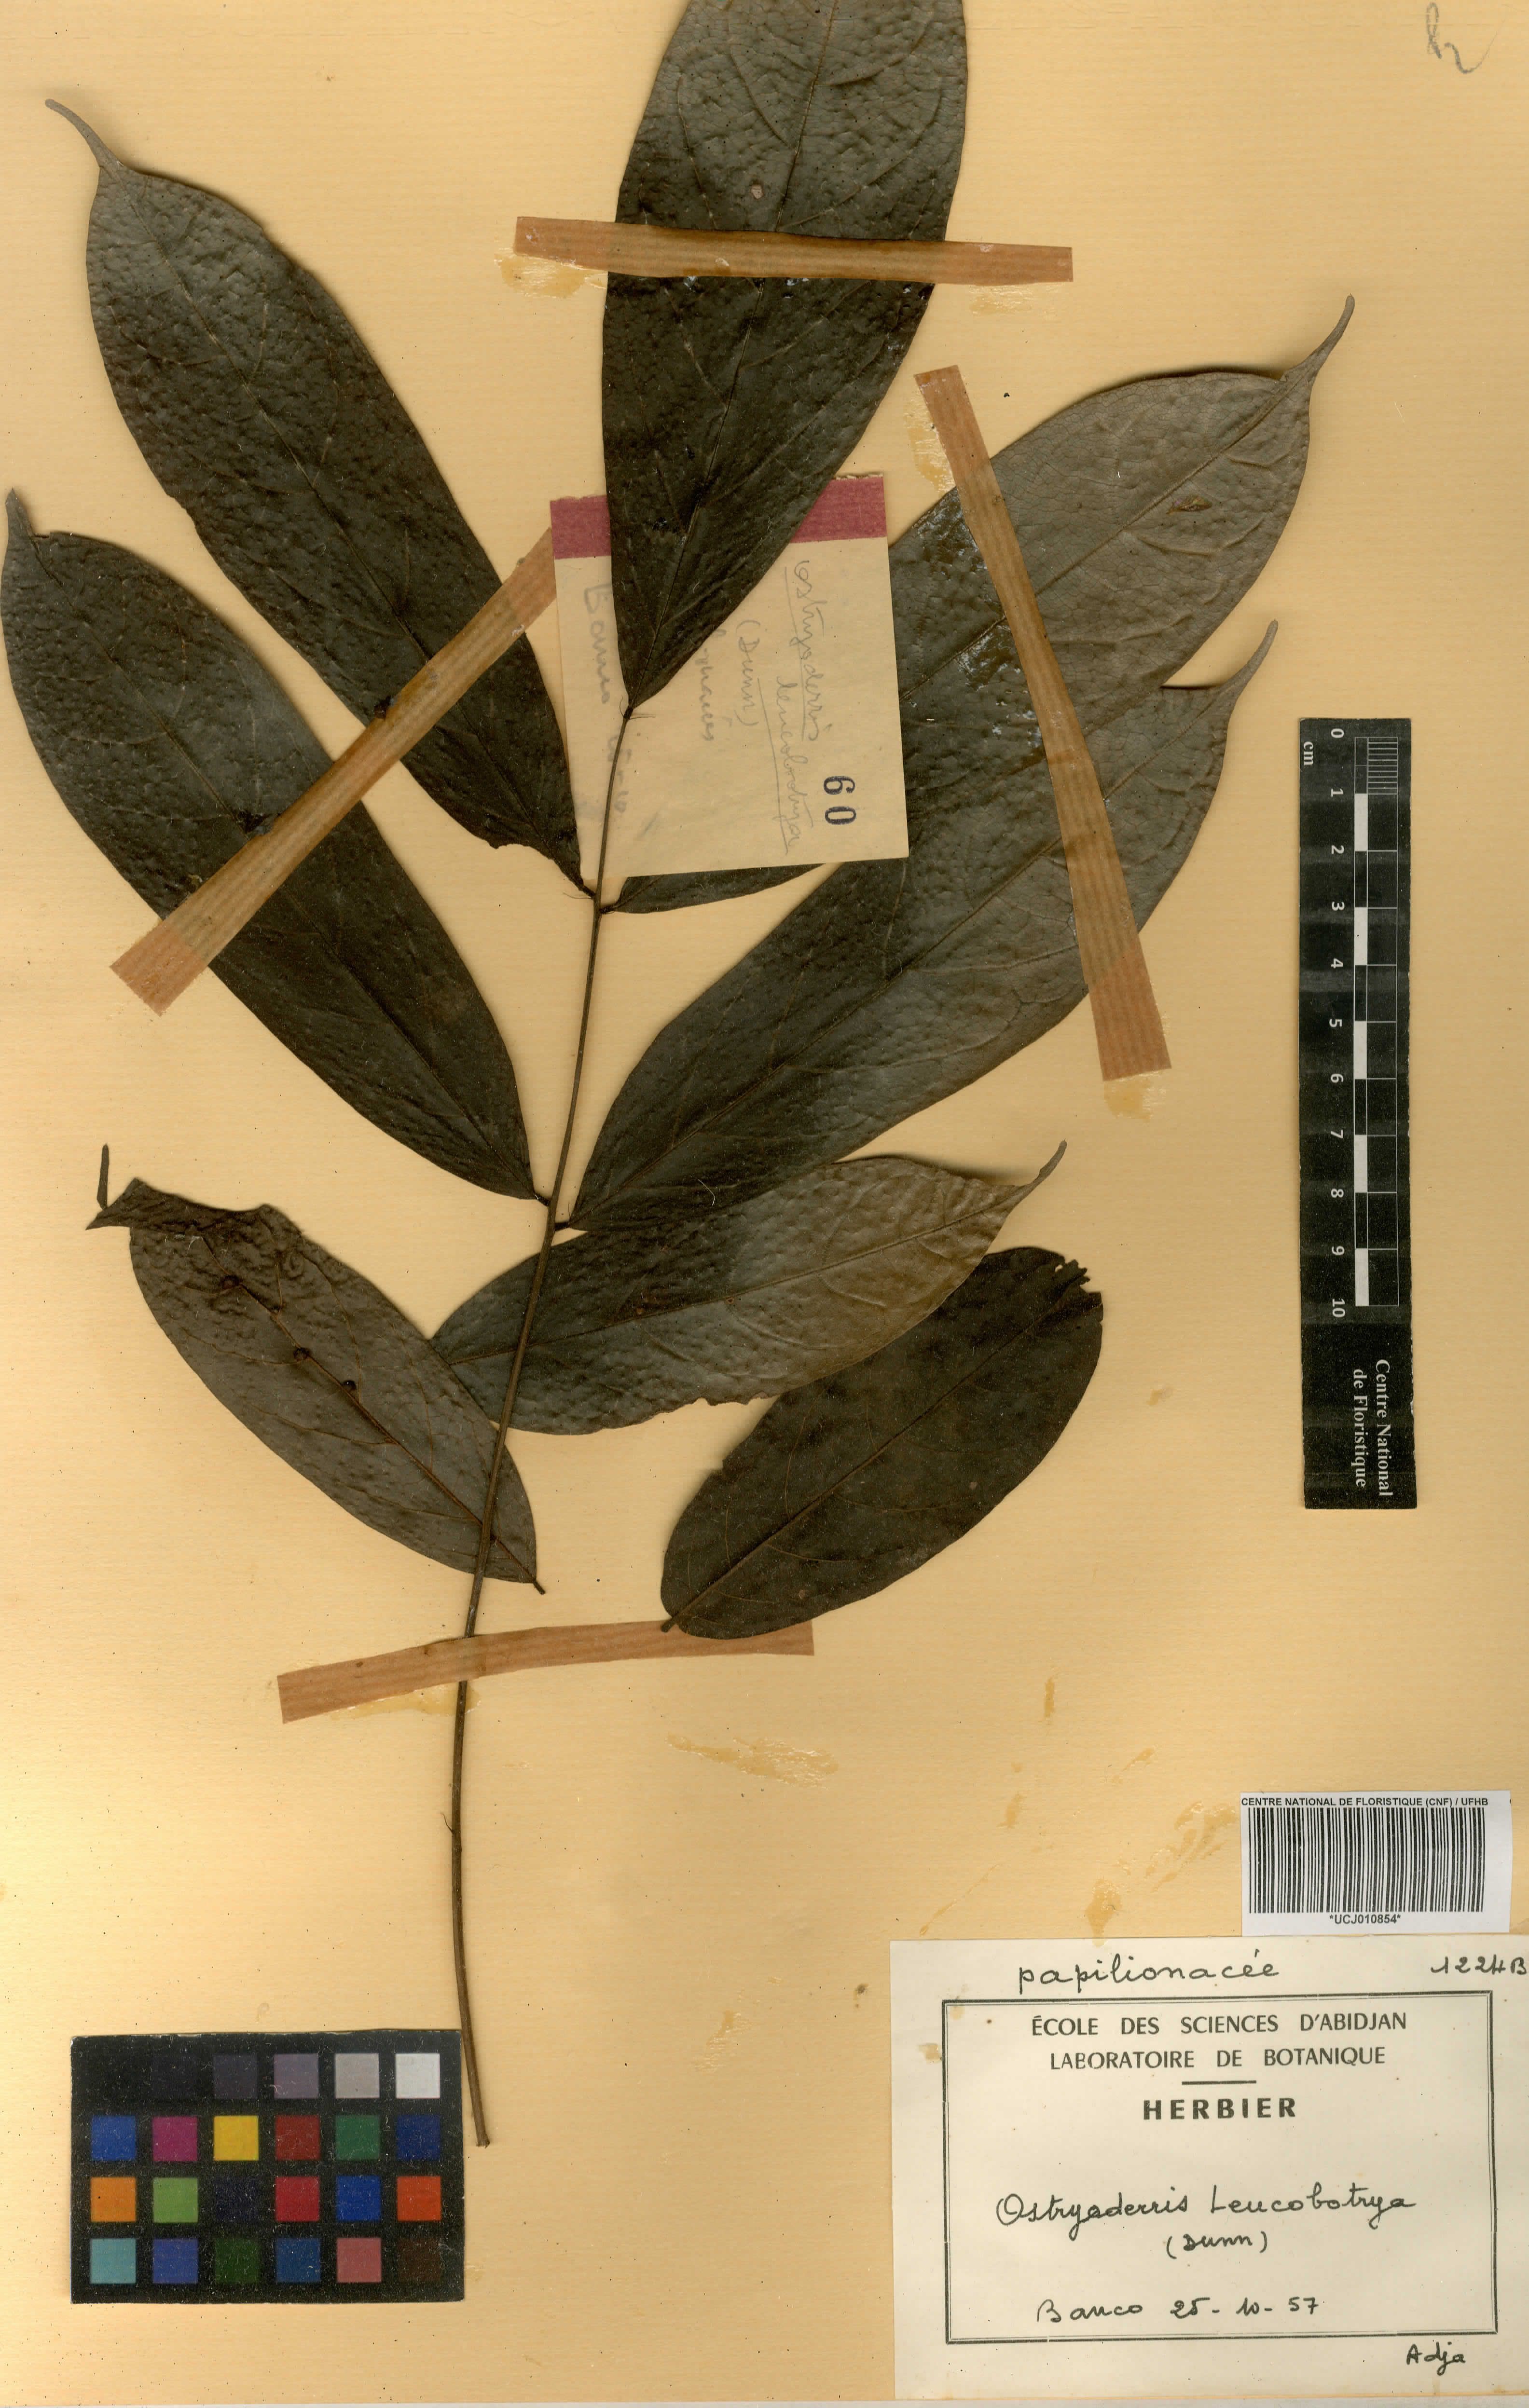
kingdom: Plantae
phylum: Tracheophyta
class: Magnoliopsida
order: Fabales
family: Fabaceae
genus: Aganope
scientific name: Aganope leucobotrya
